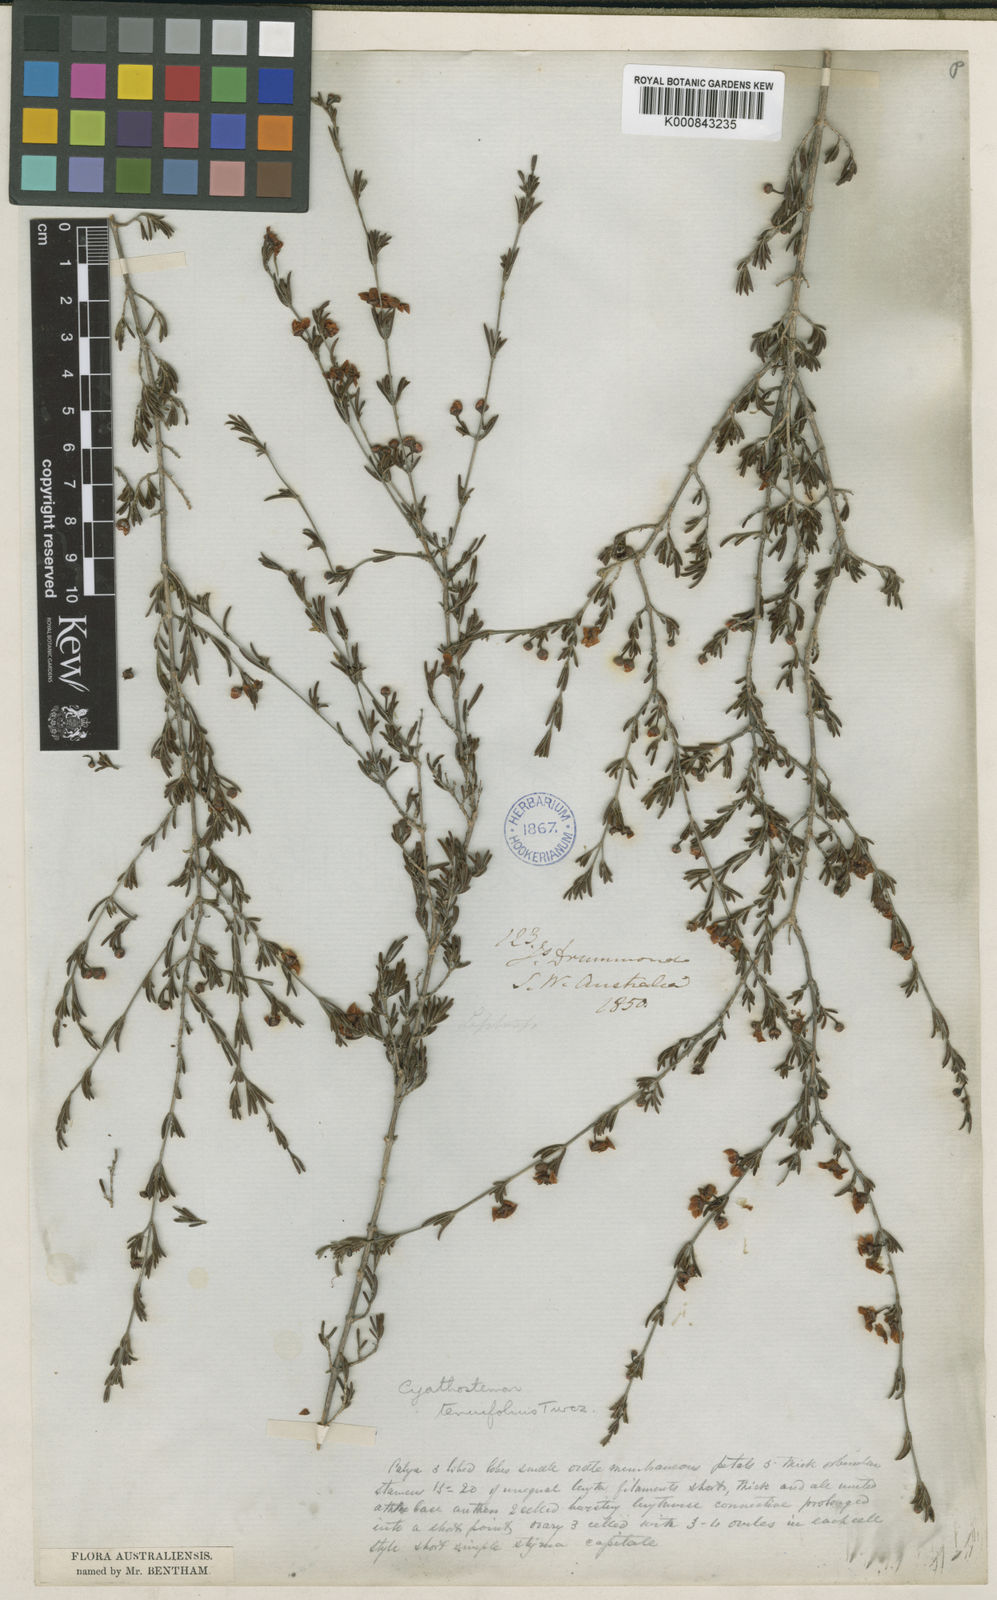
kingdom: Plantae
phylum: Tracheophyta
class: Magnoliopsida
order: Myrtales
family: Myrtaceae
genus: Cyathostemon
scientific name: Cyathostemon tenuifolius
